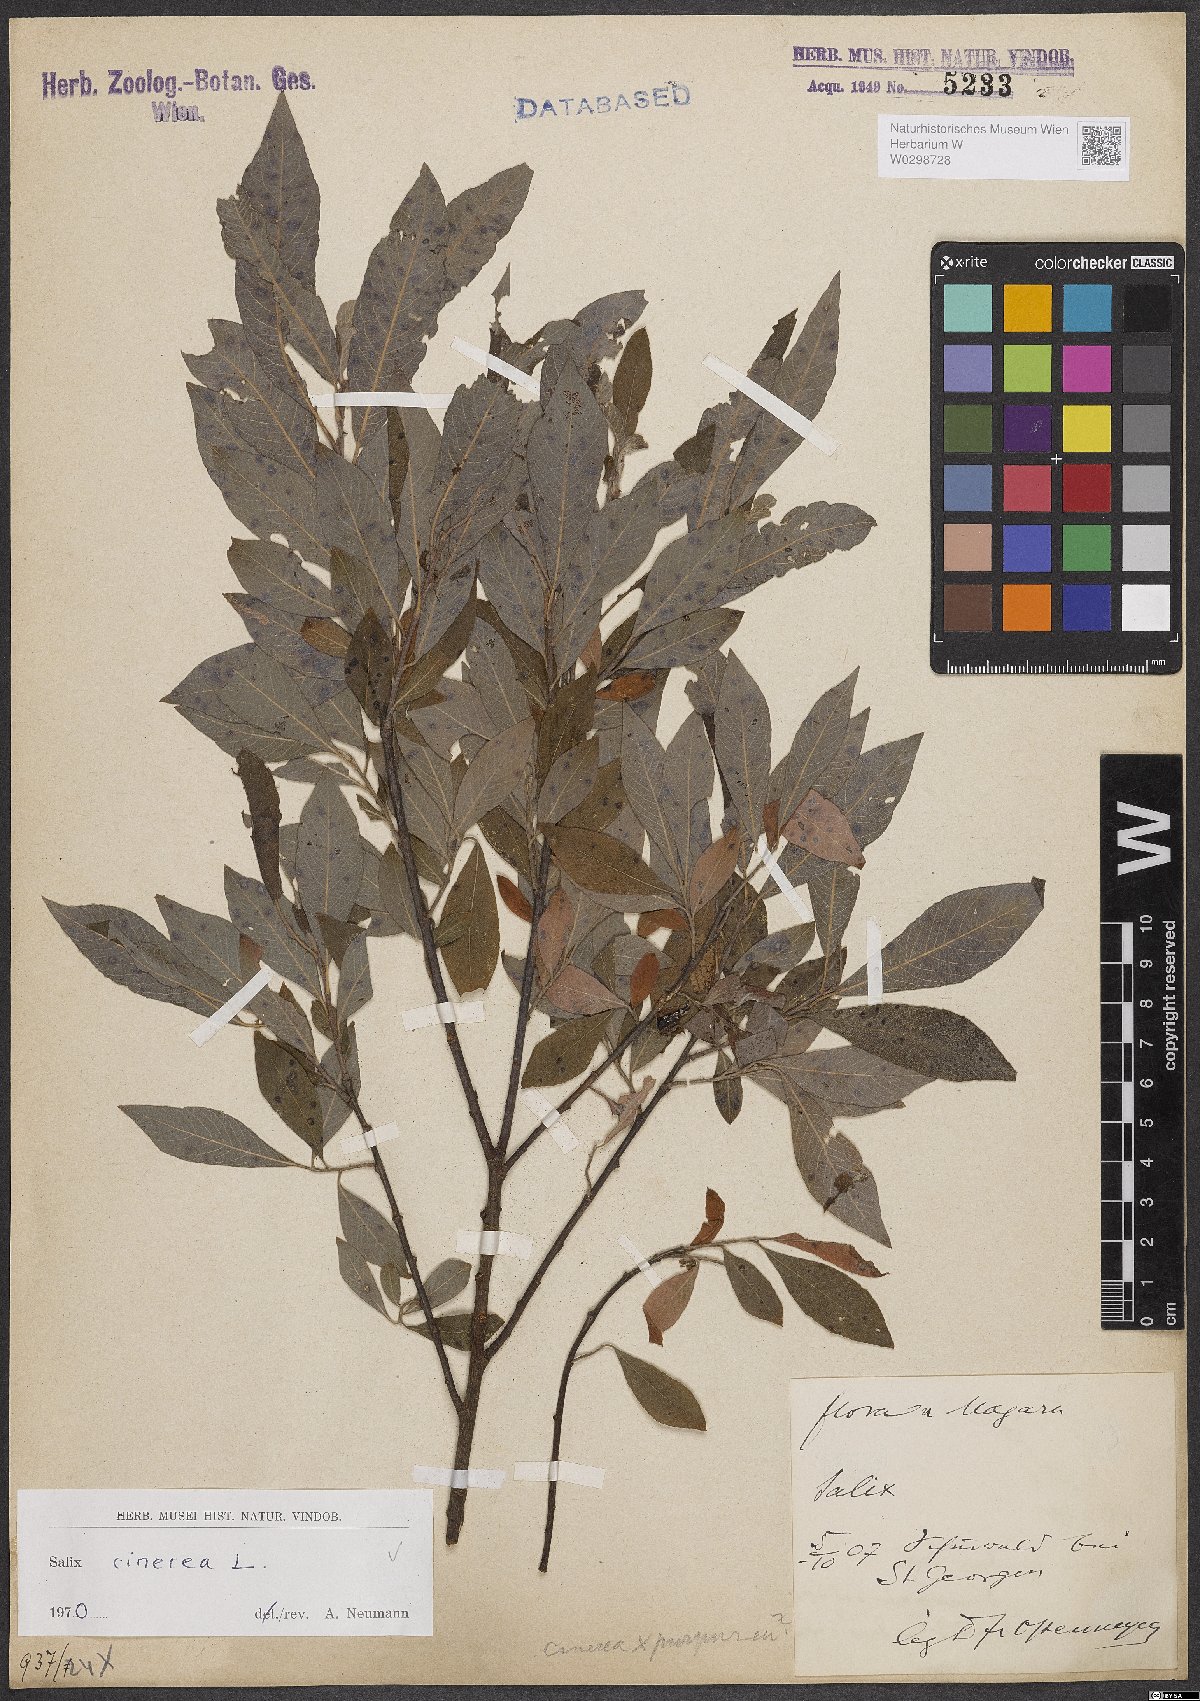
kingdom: Plantae
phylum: Tracheophyta
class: Magnoliopsida
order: Malpighiales
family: Salicaceae
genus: Salix
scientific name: Salix cinerea
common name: Common sallow
